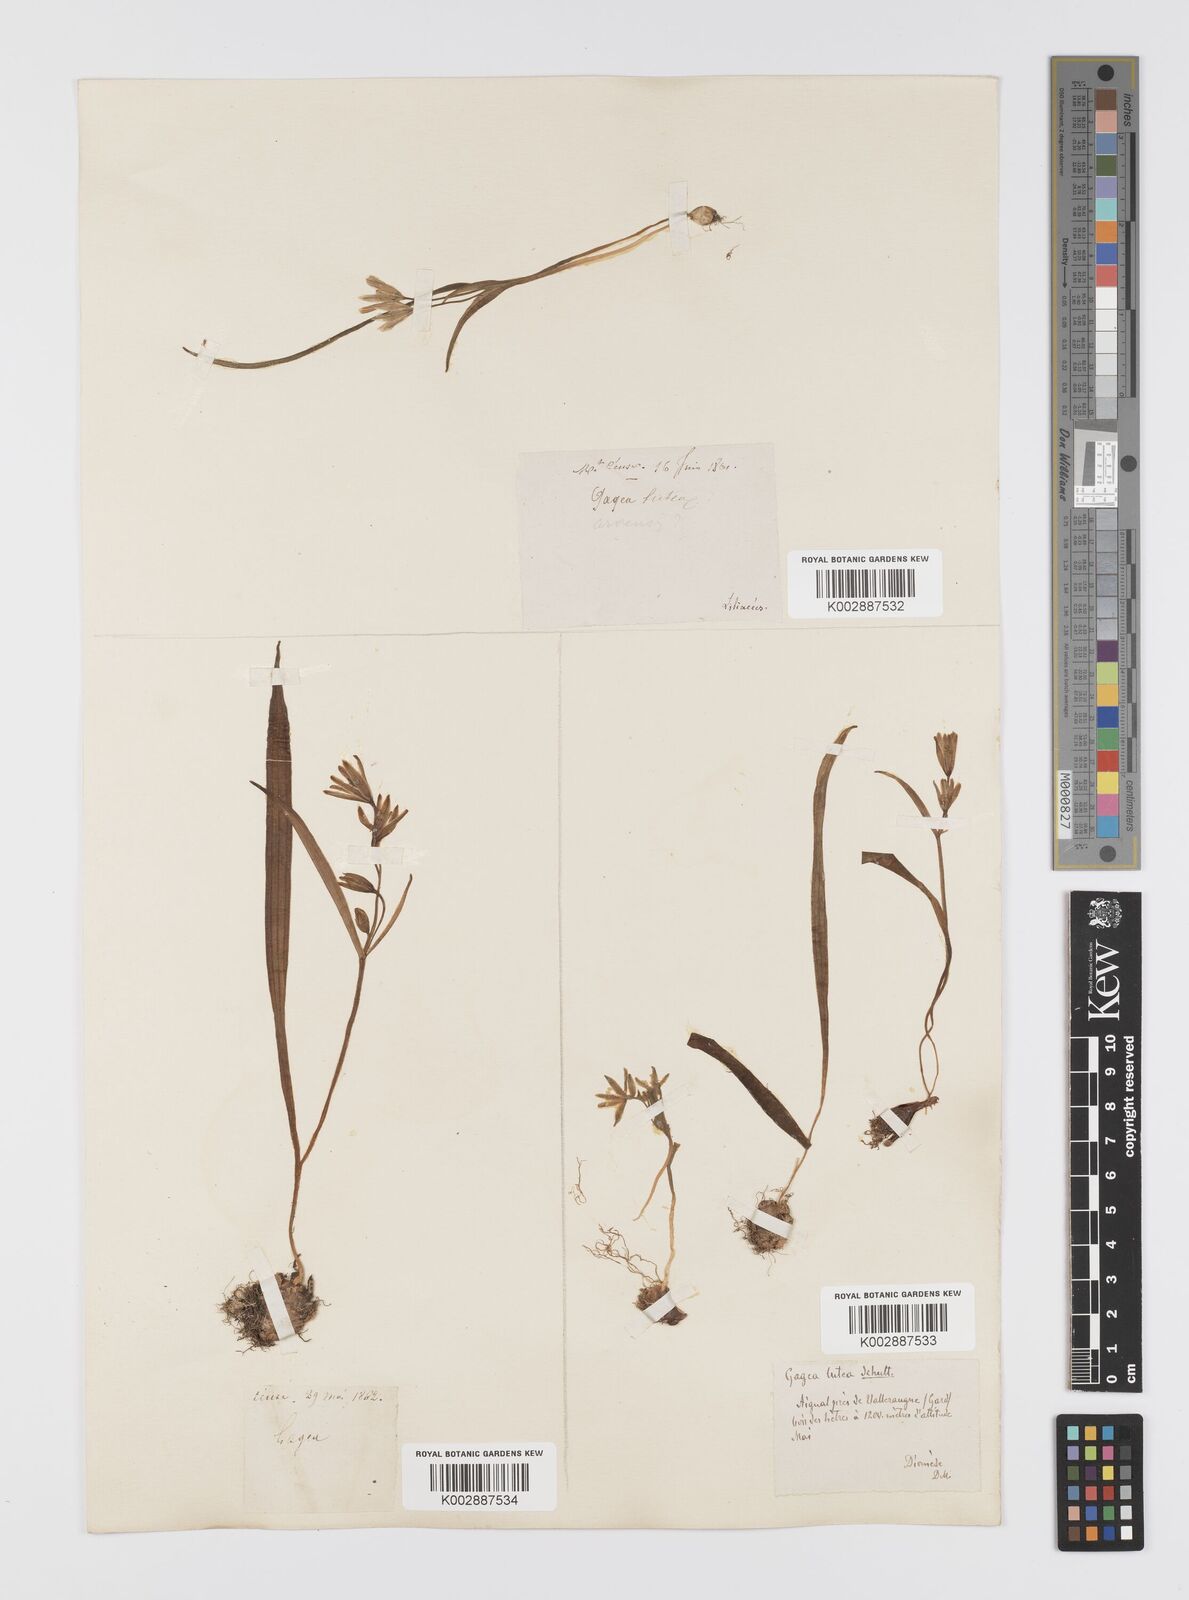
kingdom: Plantae
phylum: Tracheophyta
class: Liliopsida
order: Liliales
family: Liliaceae
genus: Gagea
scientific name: Gagea lutea
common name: Yellow star-of-bethlehem
